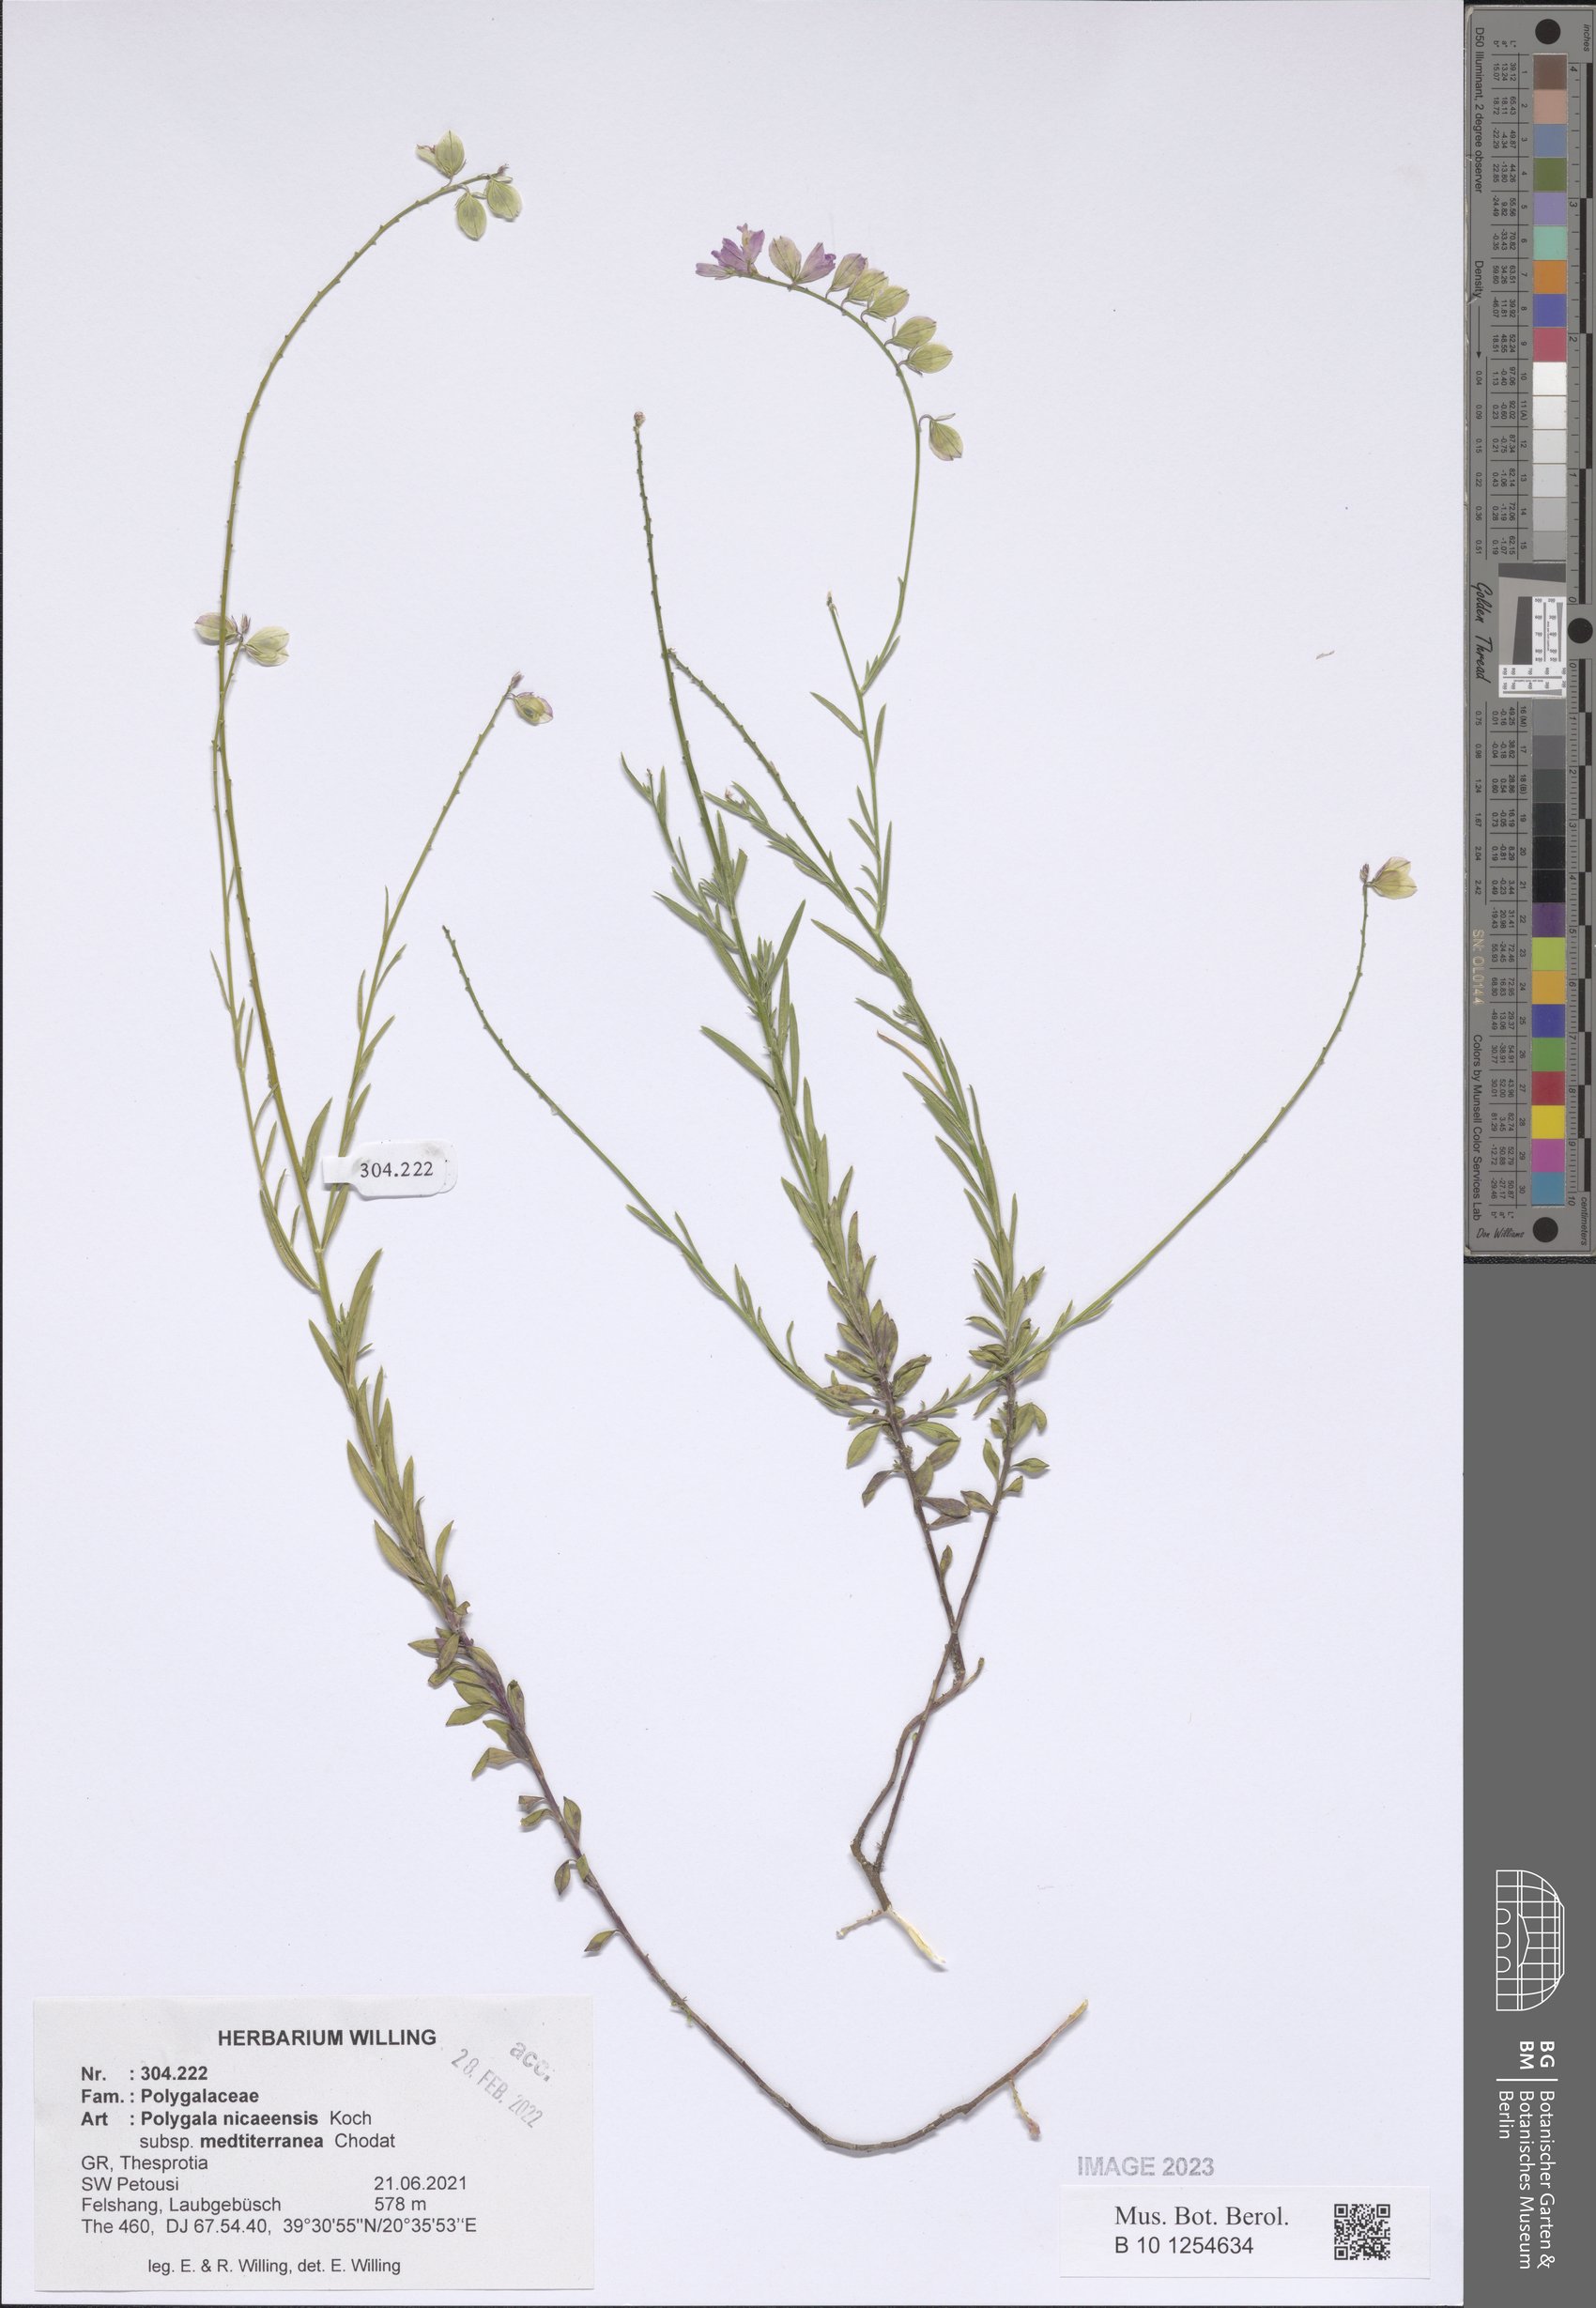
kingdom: Plantae
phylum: Tracheophyta
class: Magnoliopsida
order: Fabales
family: Polygalaceae
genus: Polygala
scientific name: Polygala nicaeensis
